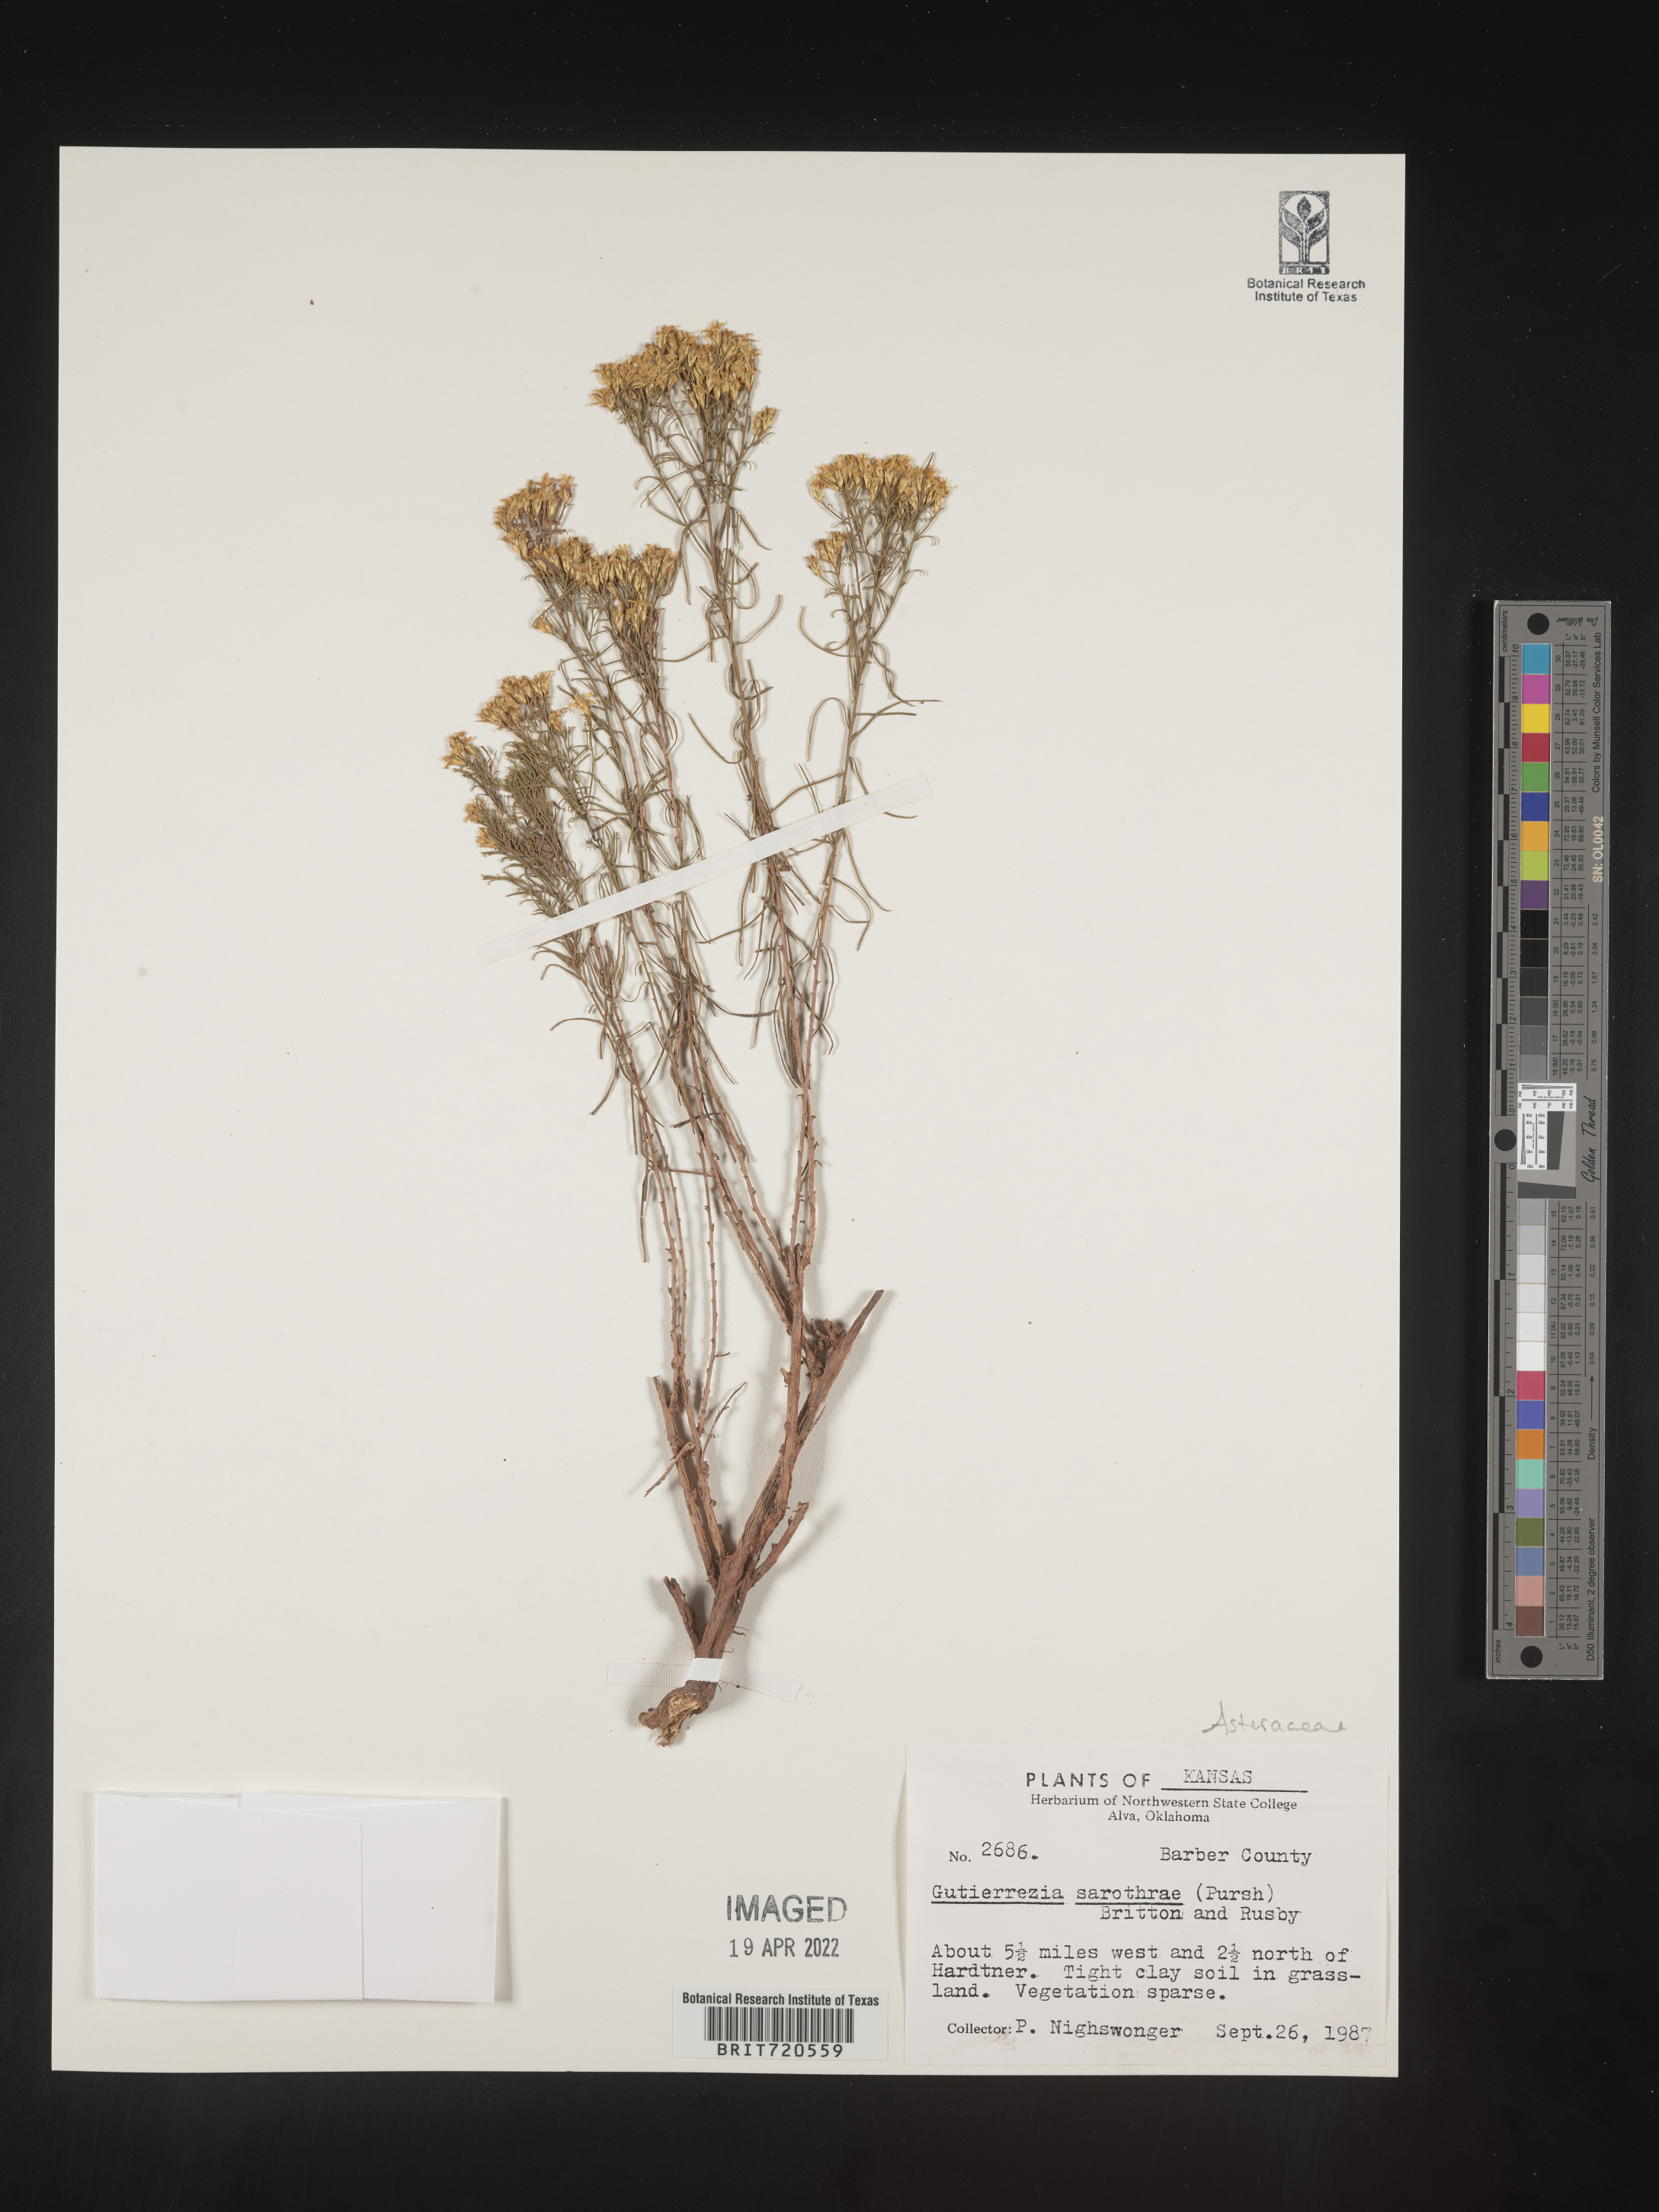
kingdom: Plantae
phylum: Tracheophyta
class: Magnoliopsida
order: Asterales
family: Asteraceae
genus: Gutierrezia
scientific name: Gutierrezia sarothrae
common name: Broom snakeweed
